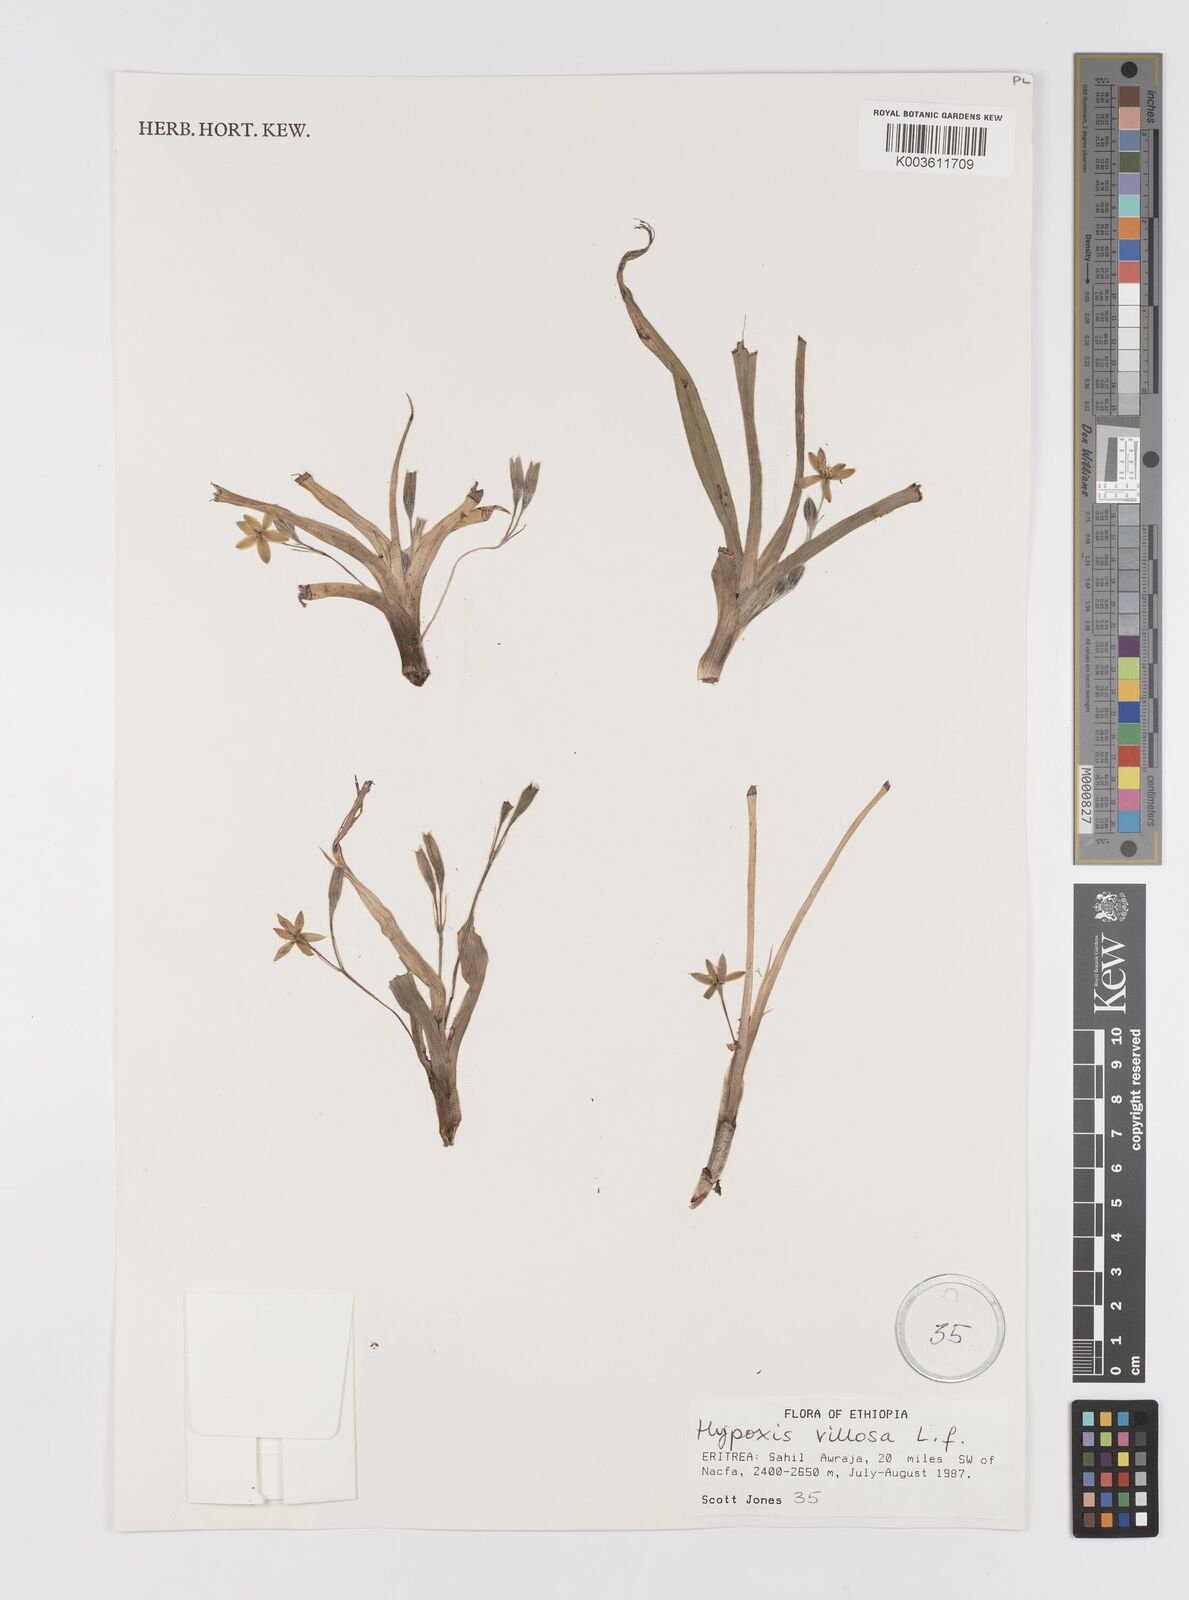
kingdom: Plantae
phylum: Tracheophyta
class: Liliopsida
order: Asparagales
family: Hypoxidaceae
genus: Hypoxis
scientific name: Hypoxis villosa
